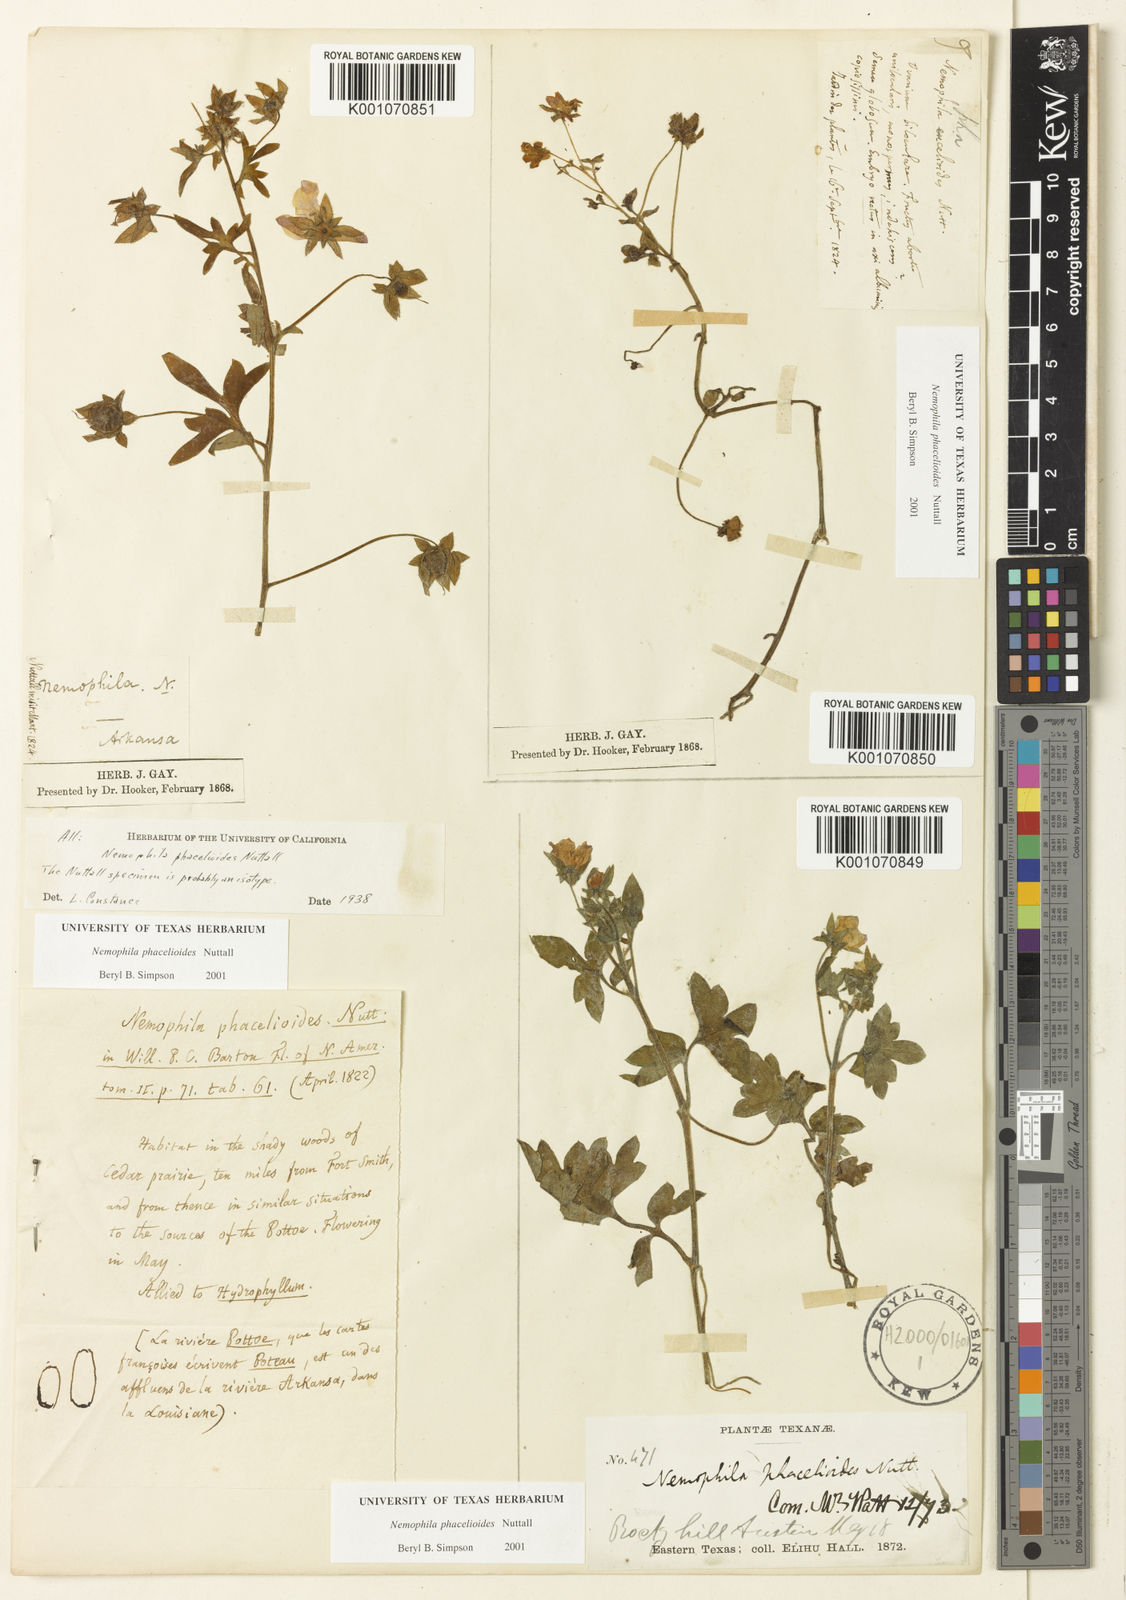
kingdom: Plantae
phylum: Tracheophyta
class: Magnoliopsida
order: Boraginales
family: Hydrophyllaceae
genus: Nemophila
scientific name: Nemophila
